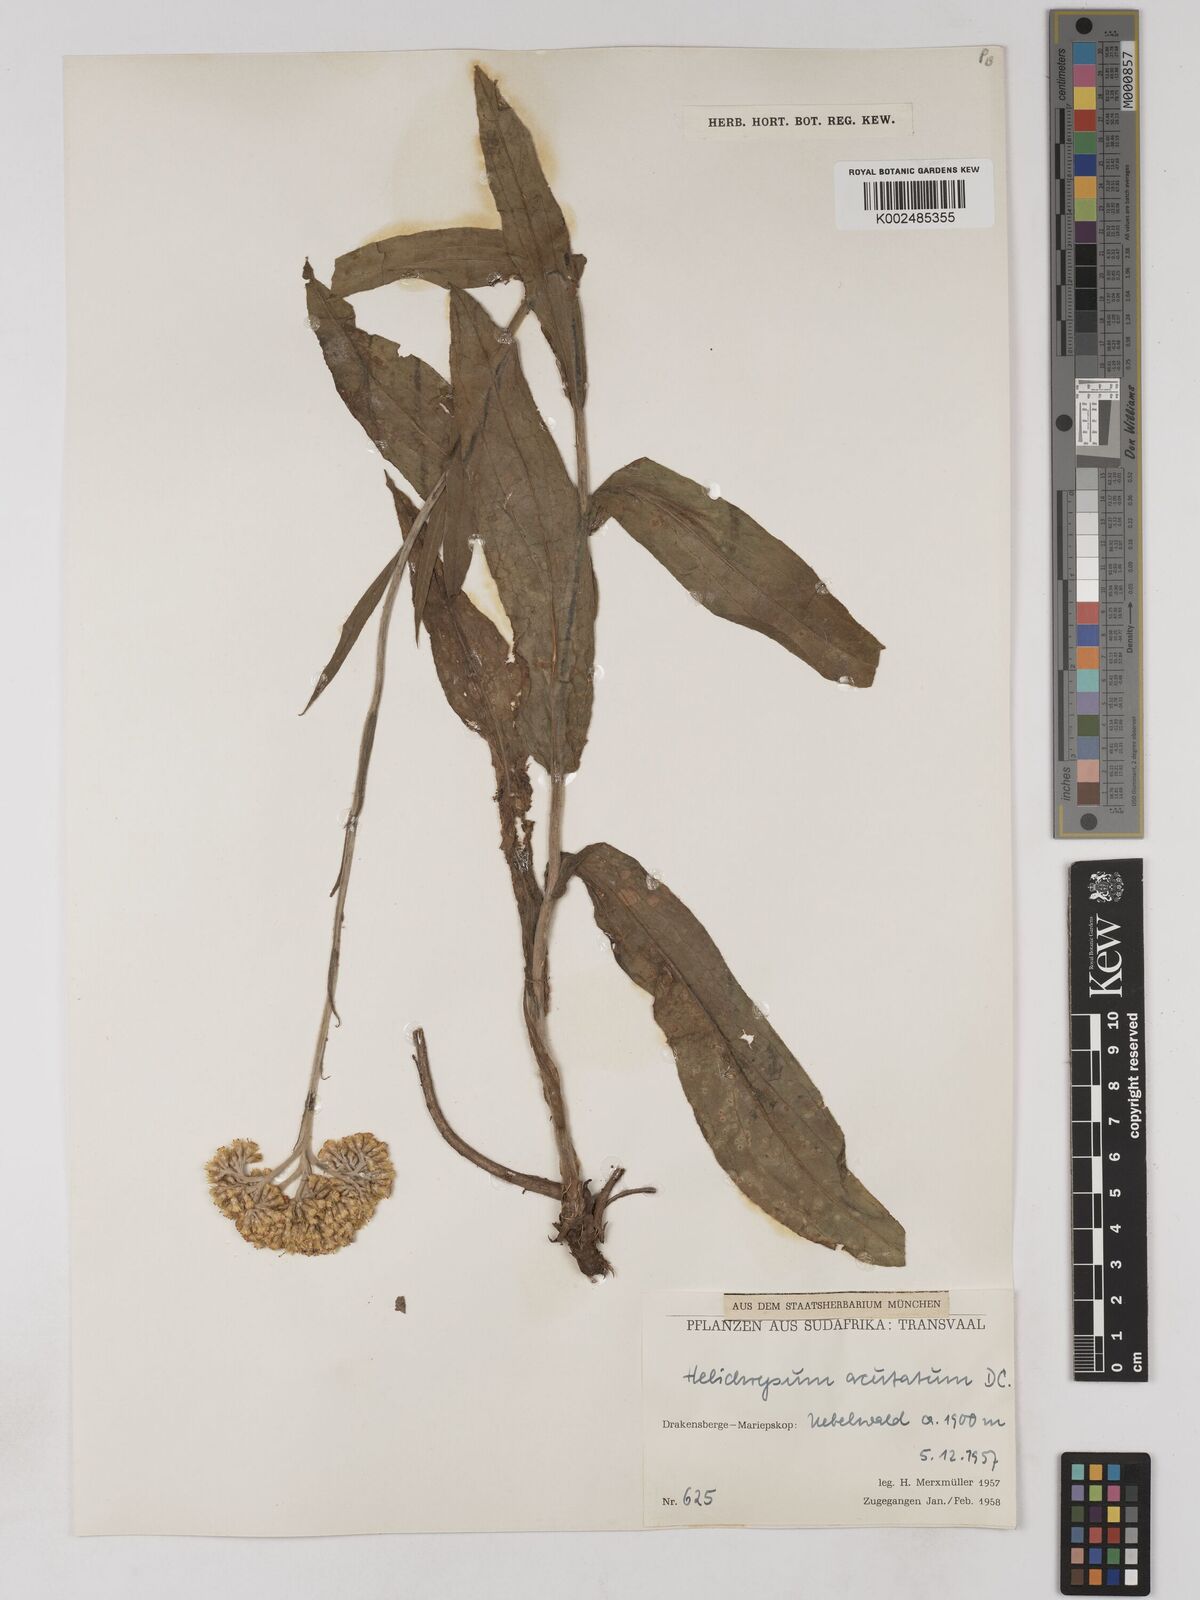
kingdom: Plantae
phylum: Tracheophyta
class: Magnoliopsida
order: Asterales
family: Asteraceae
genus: Helichrysum
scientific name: Helichrysum acutatum
